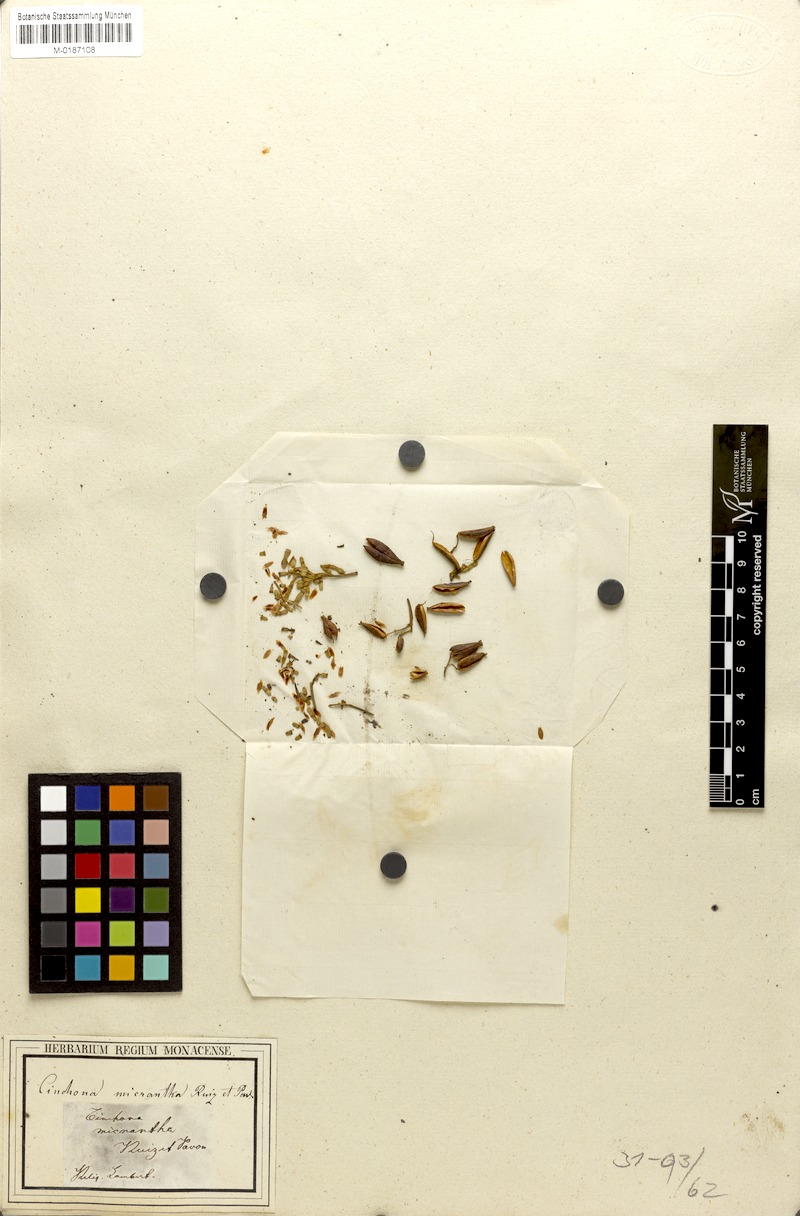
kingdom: Plantae
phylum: Tracheophyta
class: Magnoliopsida
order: Gentianales
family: Rubiaceae
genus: Cinchona
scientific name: Cinchona micrantha
